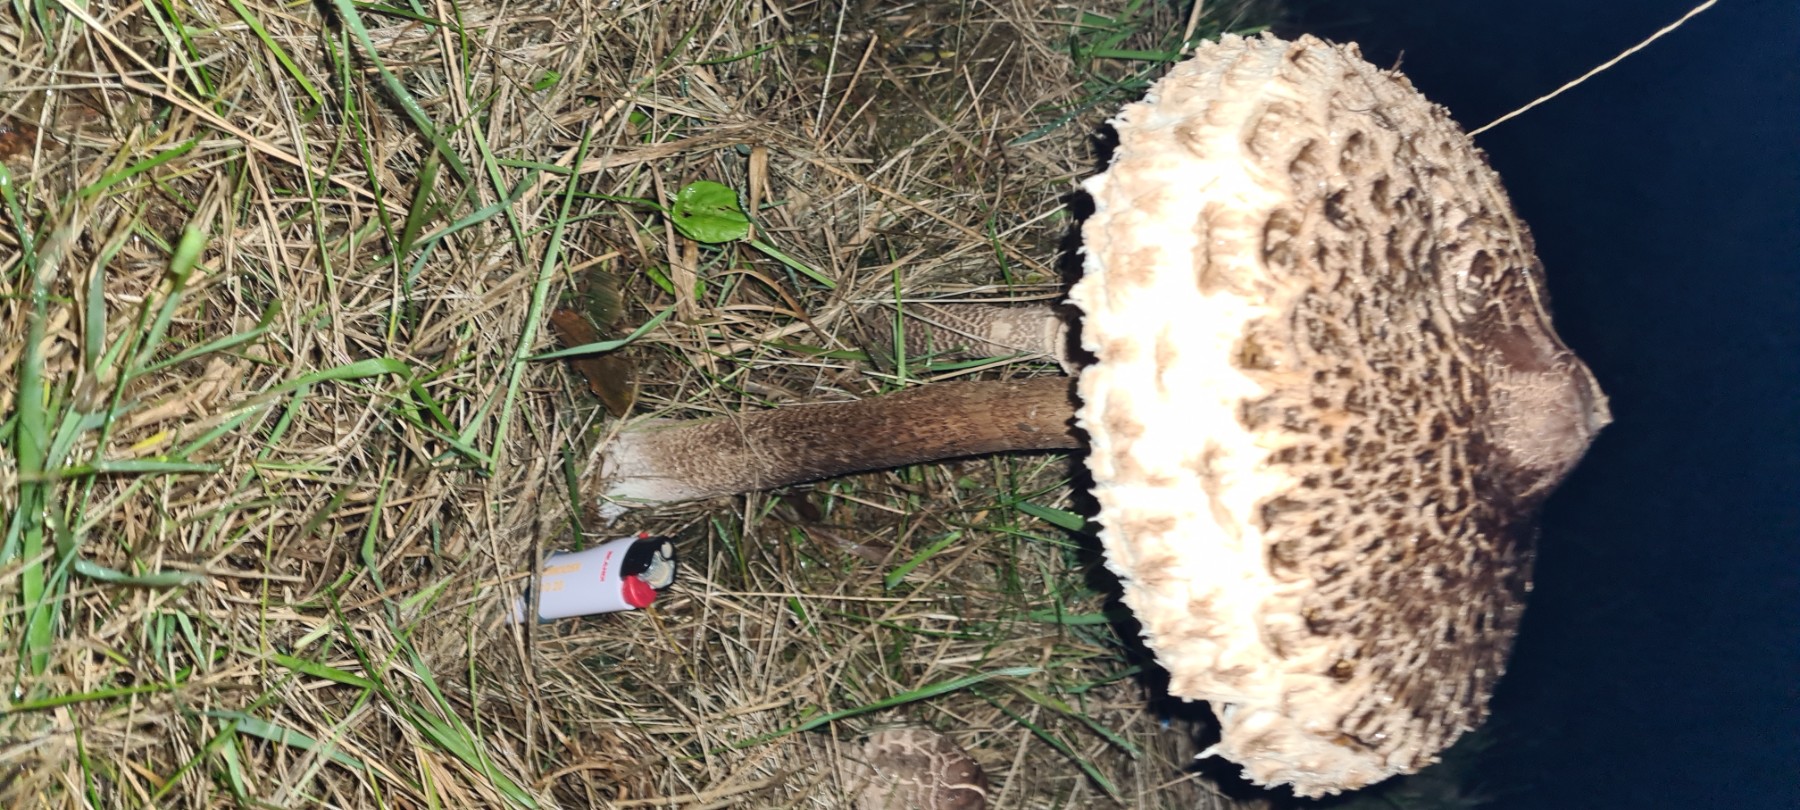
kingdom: Fungi
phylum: Basidiomycota
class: Agaricomycetes
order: Agaricales
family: Agaricaceae
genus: Macrolepiota
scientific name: Macrolepiota procera
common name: stor kæmpeparasolhat
